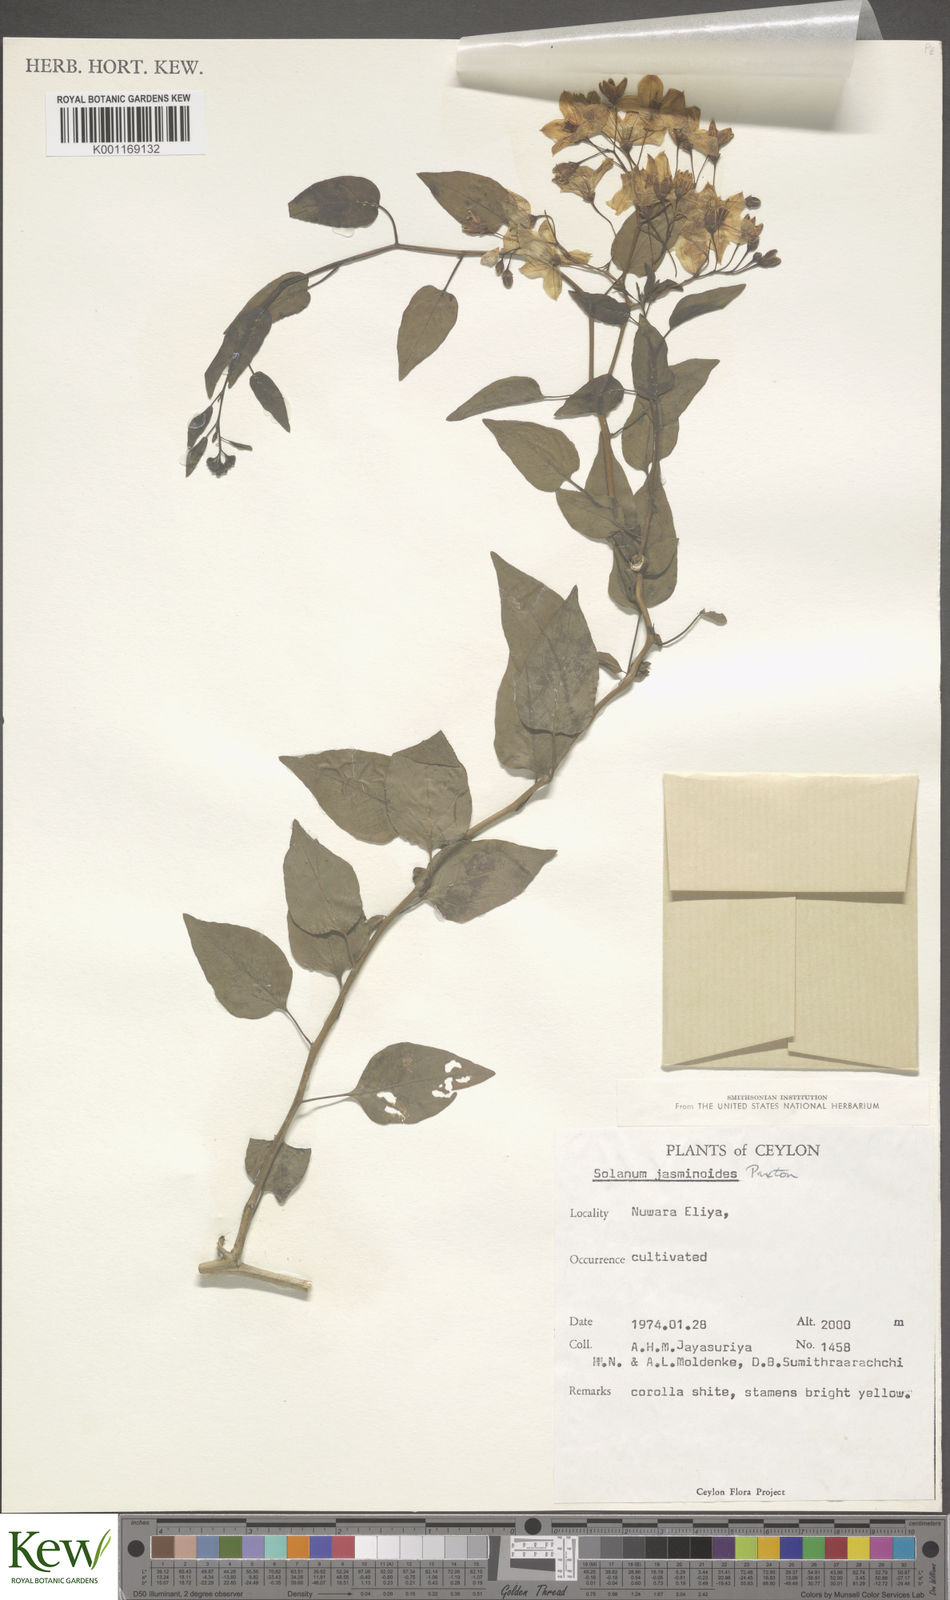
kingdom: Plantae
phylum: Tracheophyta
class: Magnoliopsida
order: Solanales
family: Solanaceae
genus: Solanum
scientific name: Solanum laxum
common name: Nightshade
